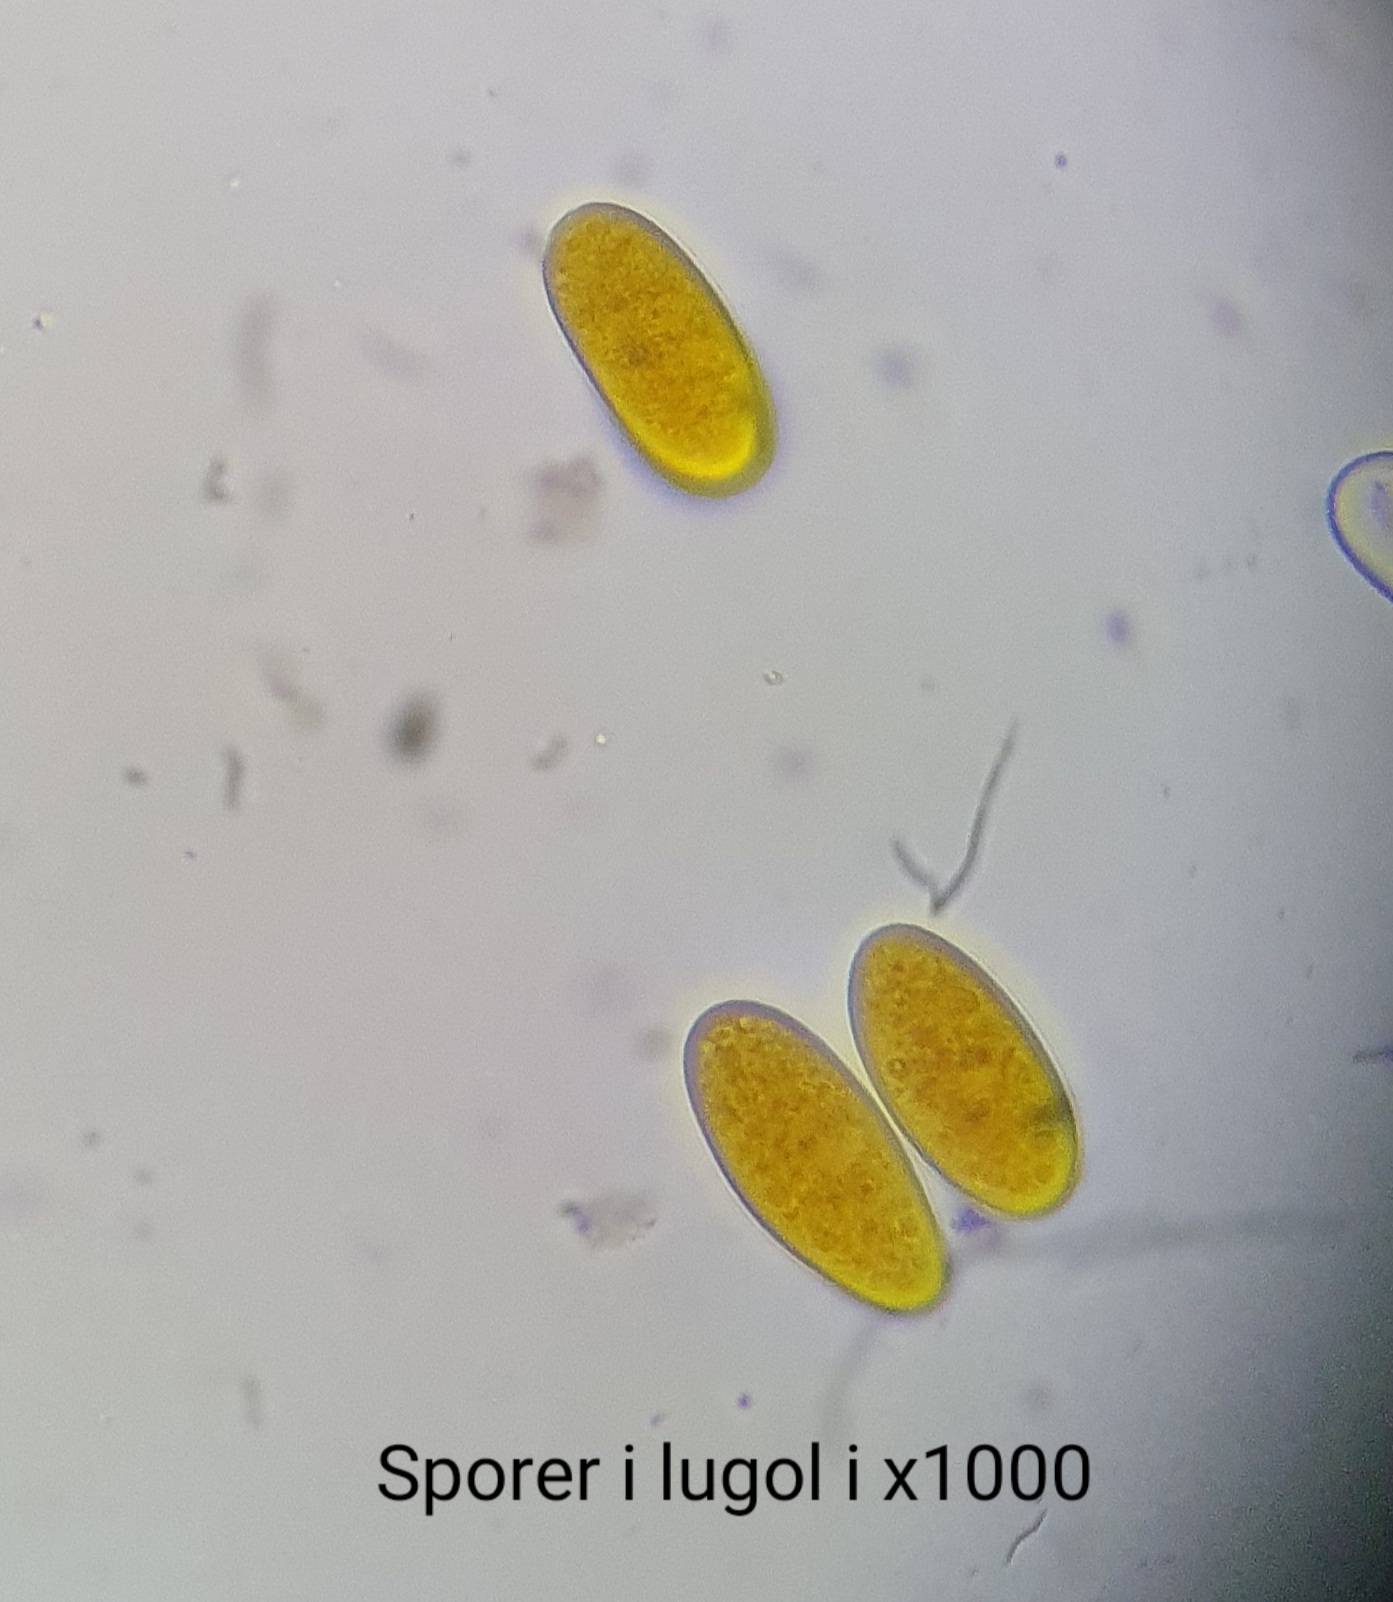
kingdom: Fungi
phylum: Ascomycota
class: Sordariomycetes
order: Diaporthales
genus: Botryodiplodia
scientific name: Botryodiplodia fraxini
